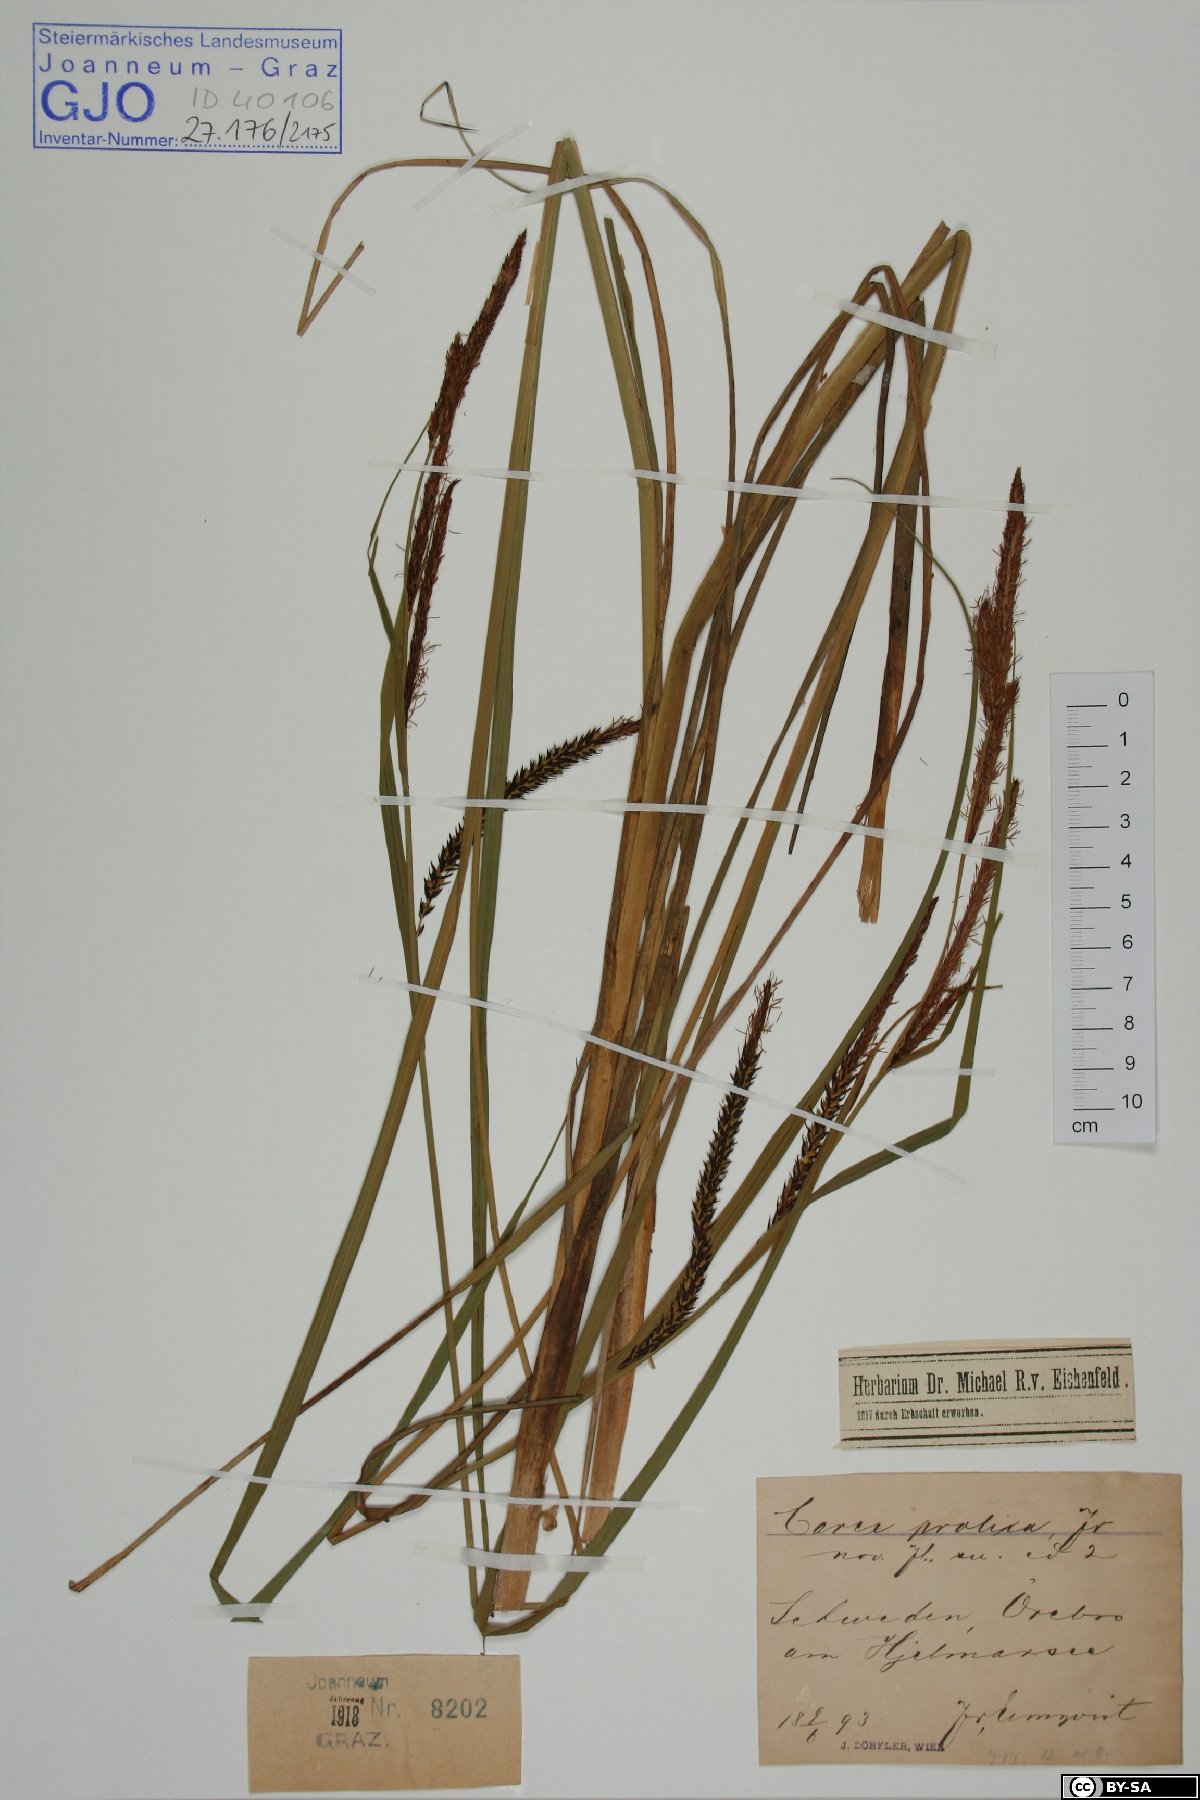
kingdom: Plantae
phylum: Tracheophyta
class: Liliopsida
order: Poales
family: Cyperaceae
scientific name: Cyperaceae
